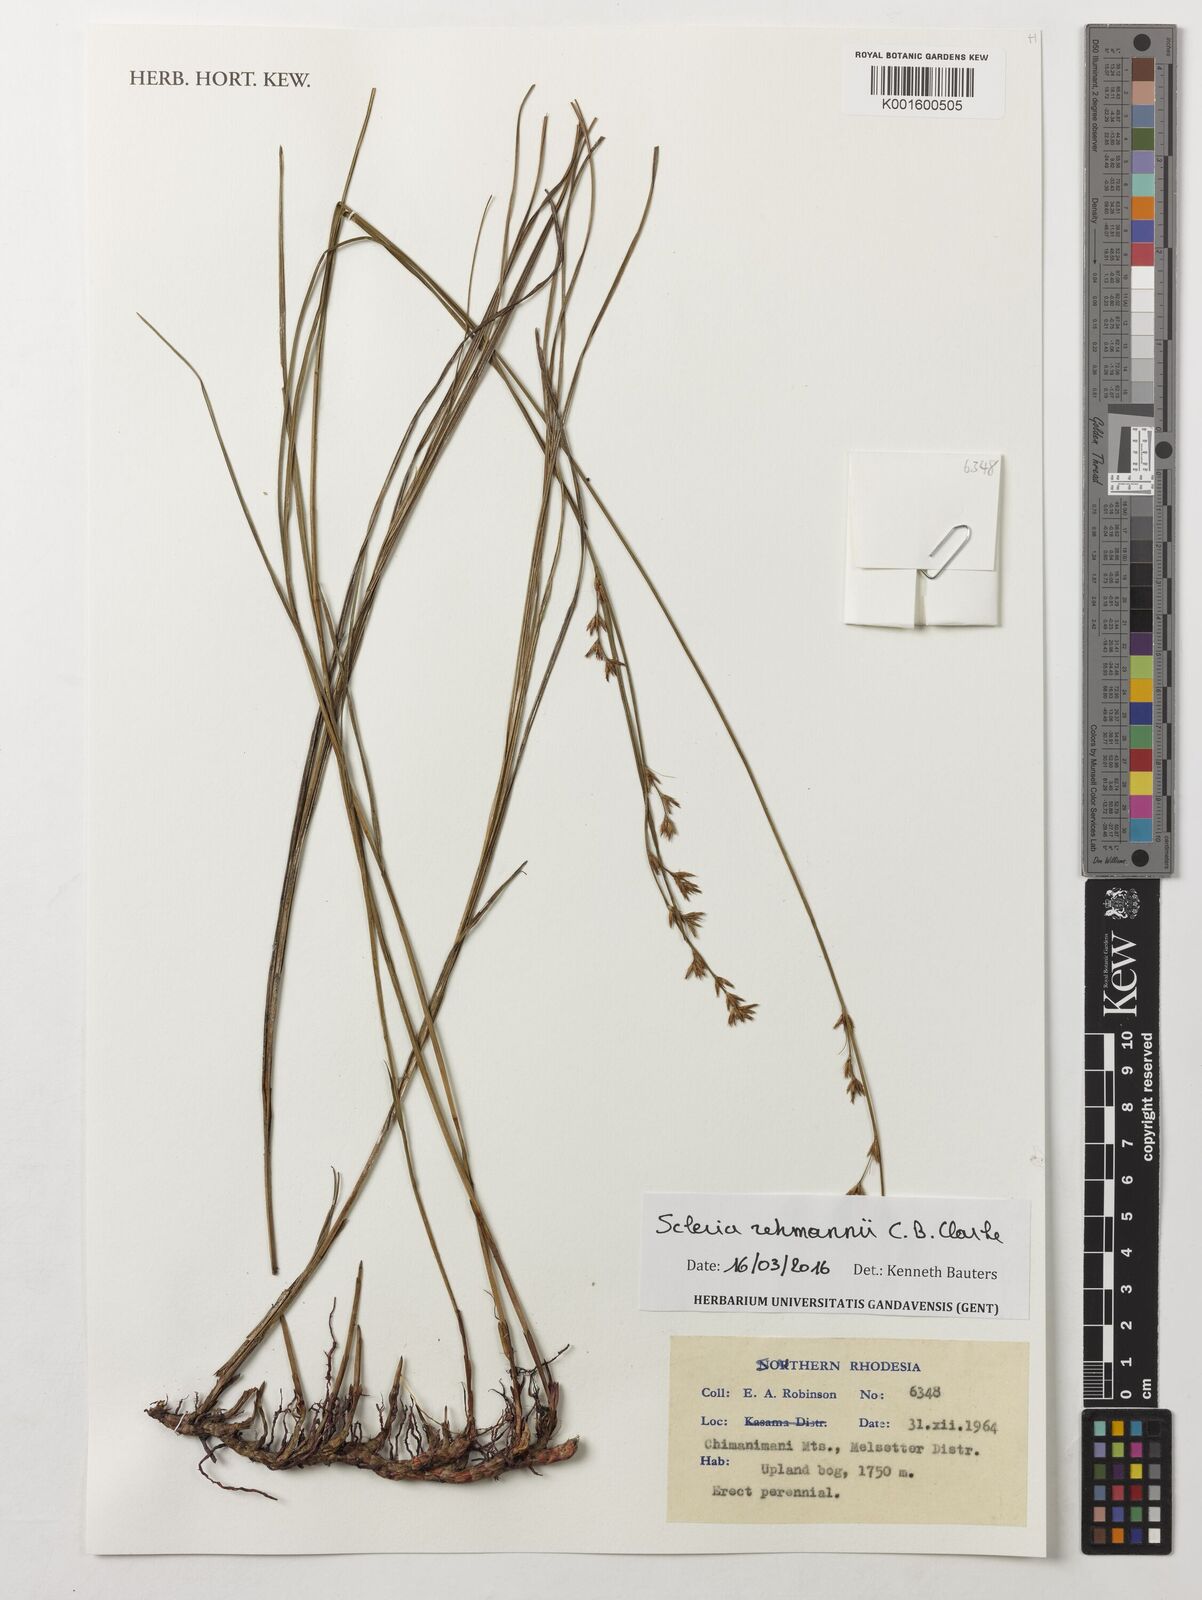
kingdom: Plantae
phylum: Tracheophyta
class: Liliopsida
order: Poales
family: Cyperaceae
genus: Scleria
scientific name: Scleria rehmannii
